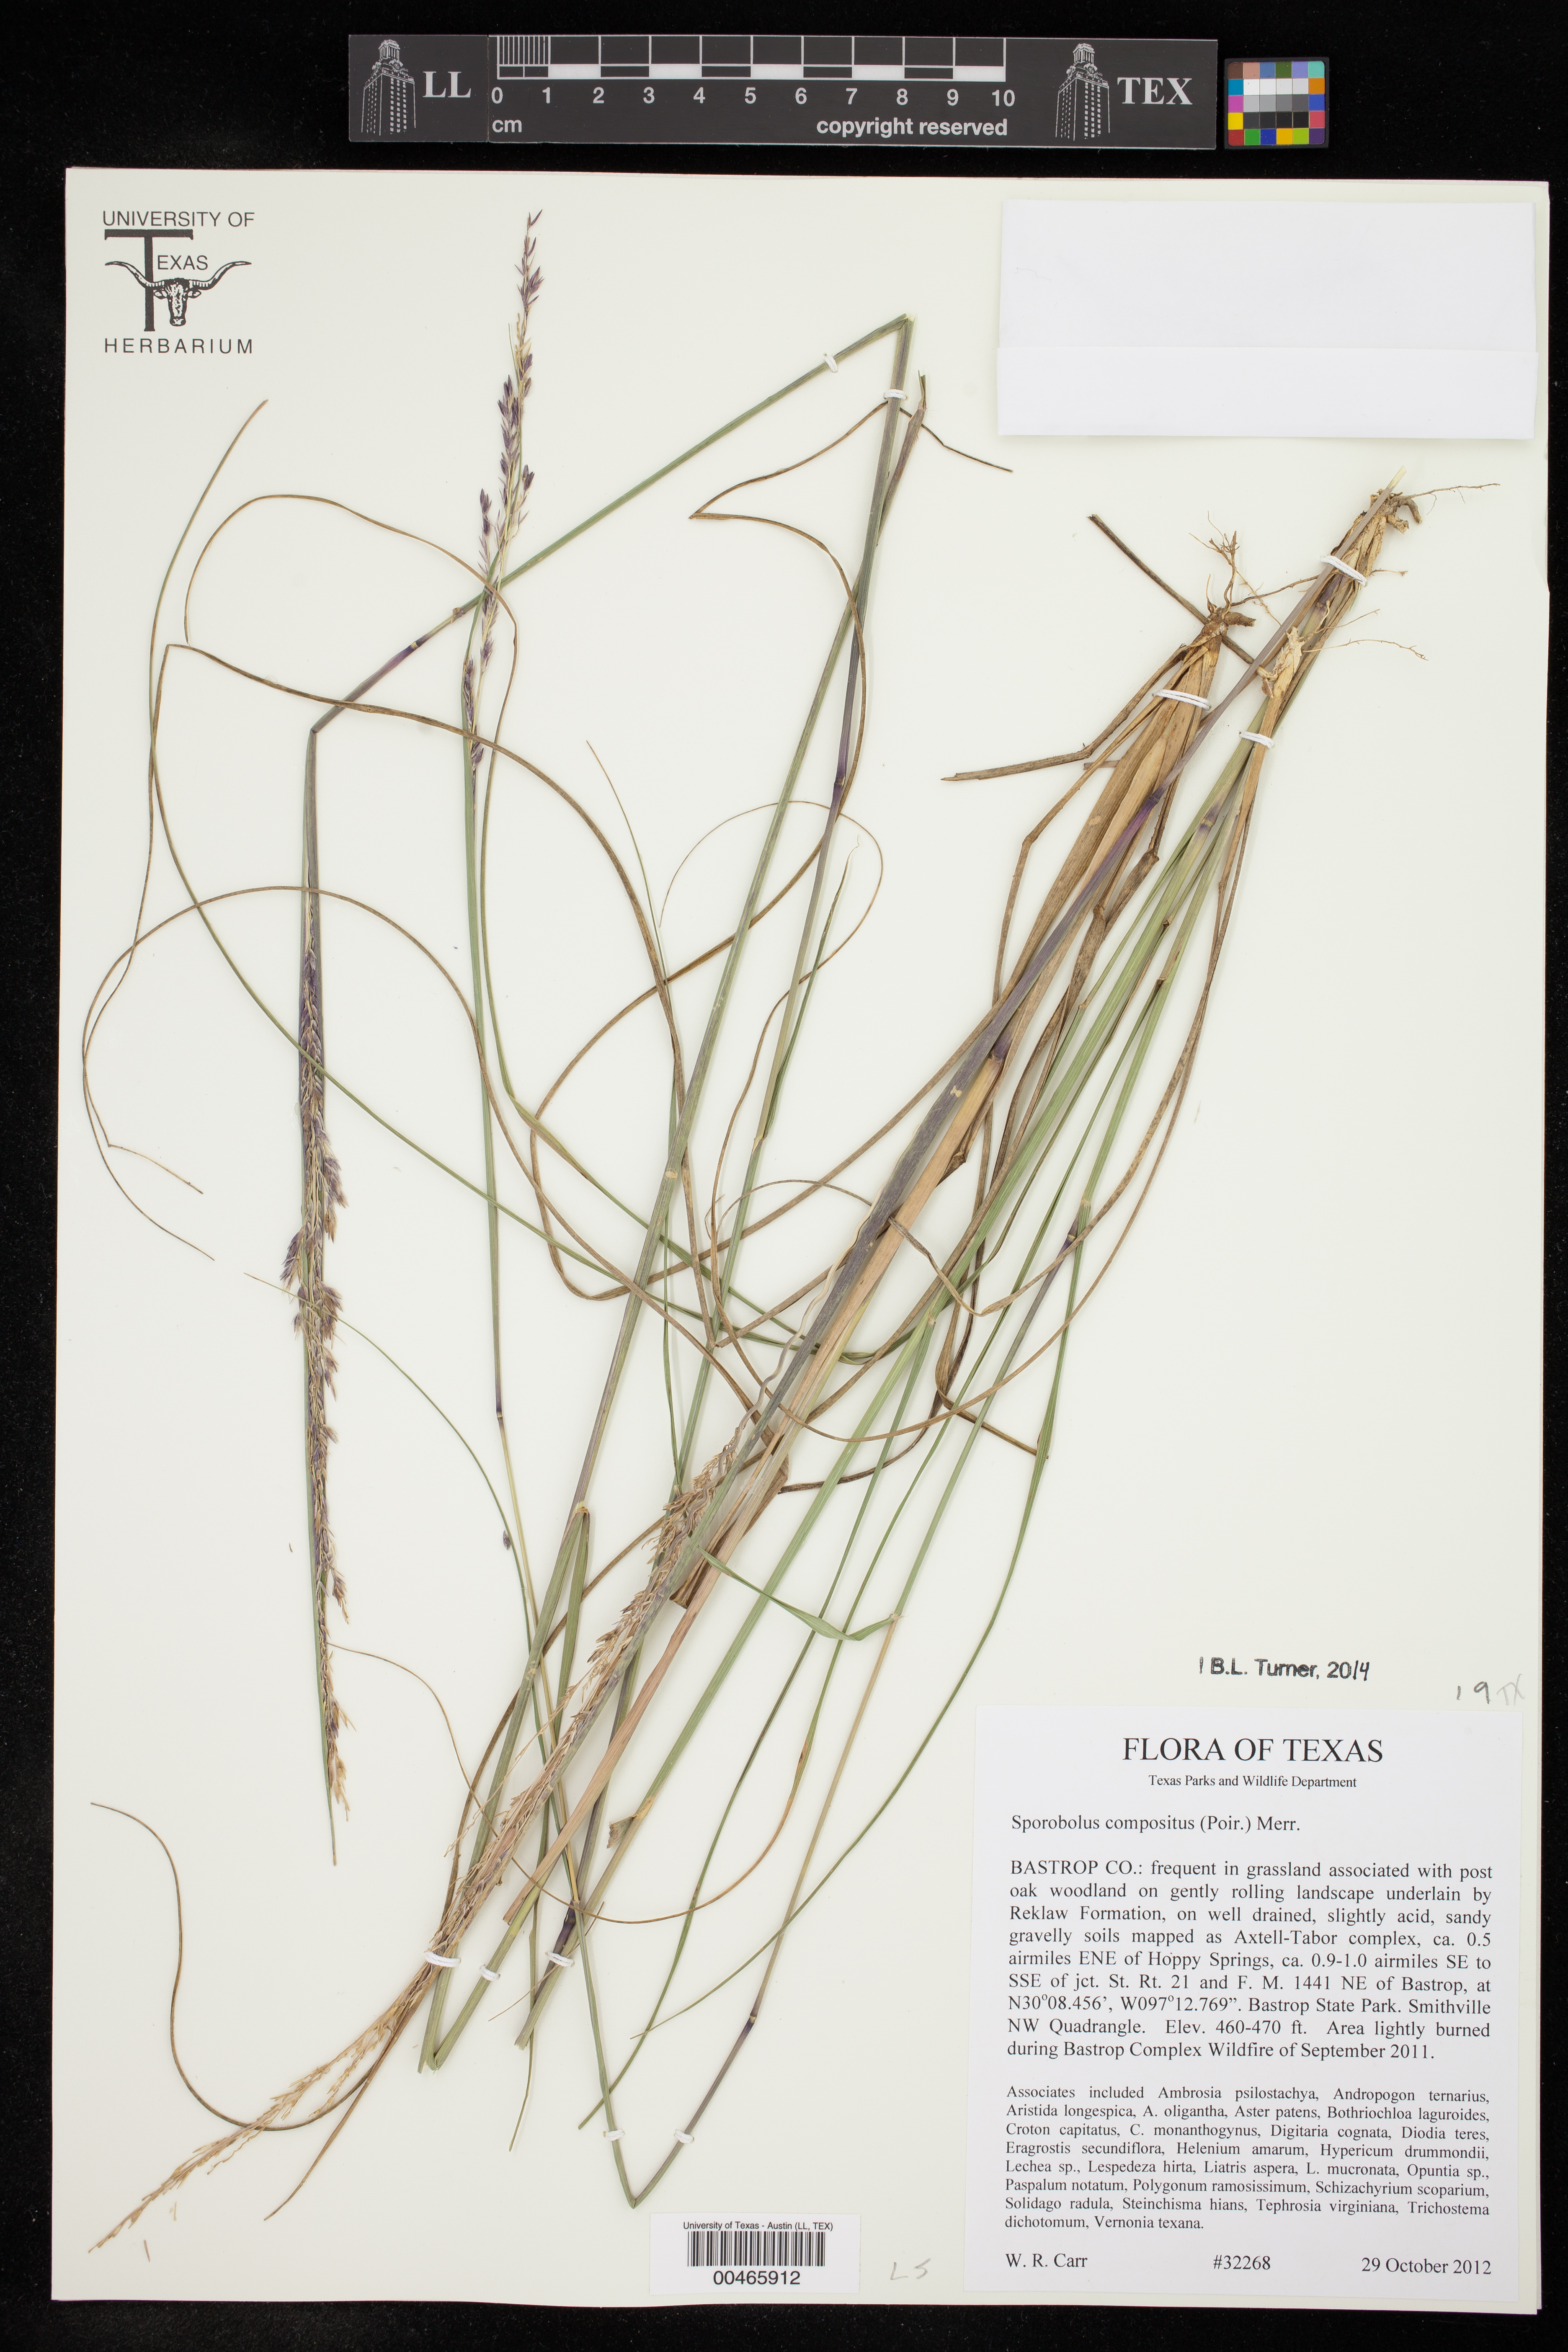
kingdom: Plantae
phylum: Tracheophyta
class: Liliopsida
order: Poales
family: Poaceae
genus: Sporobolus
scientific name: Sporobolus clandestinus
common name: Hidden dropseed
